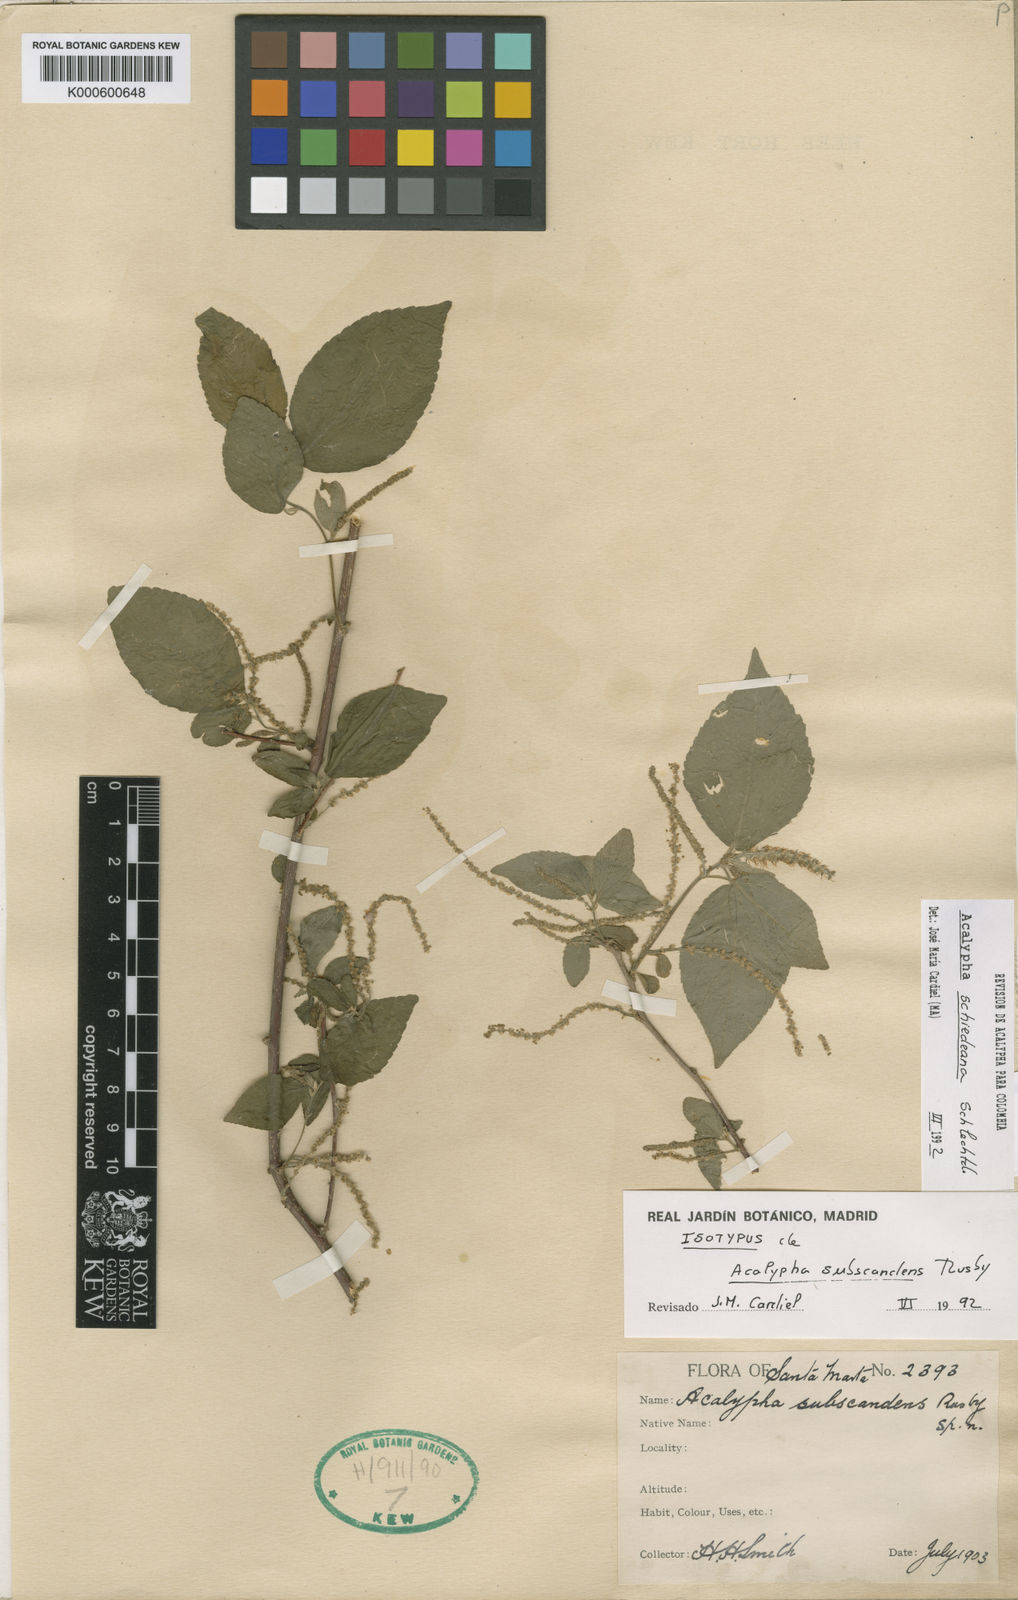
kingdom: Plantae
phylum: Tracheophyta
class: Magnoliopsida
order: Malpighiales
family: Euphorbiaceae
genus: Acalypha
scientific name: Acalypha schiedeana
